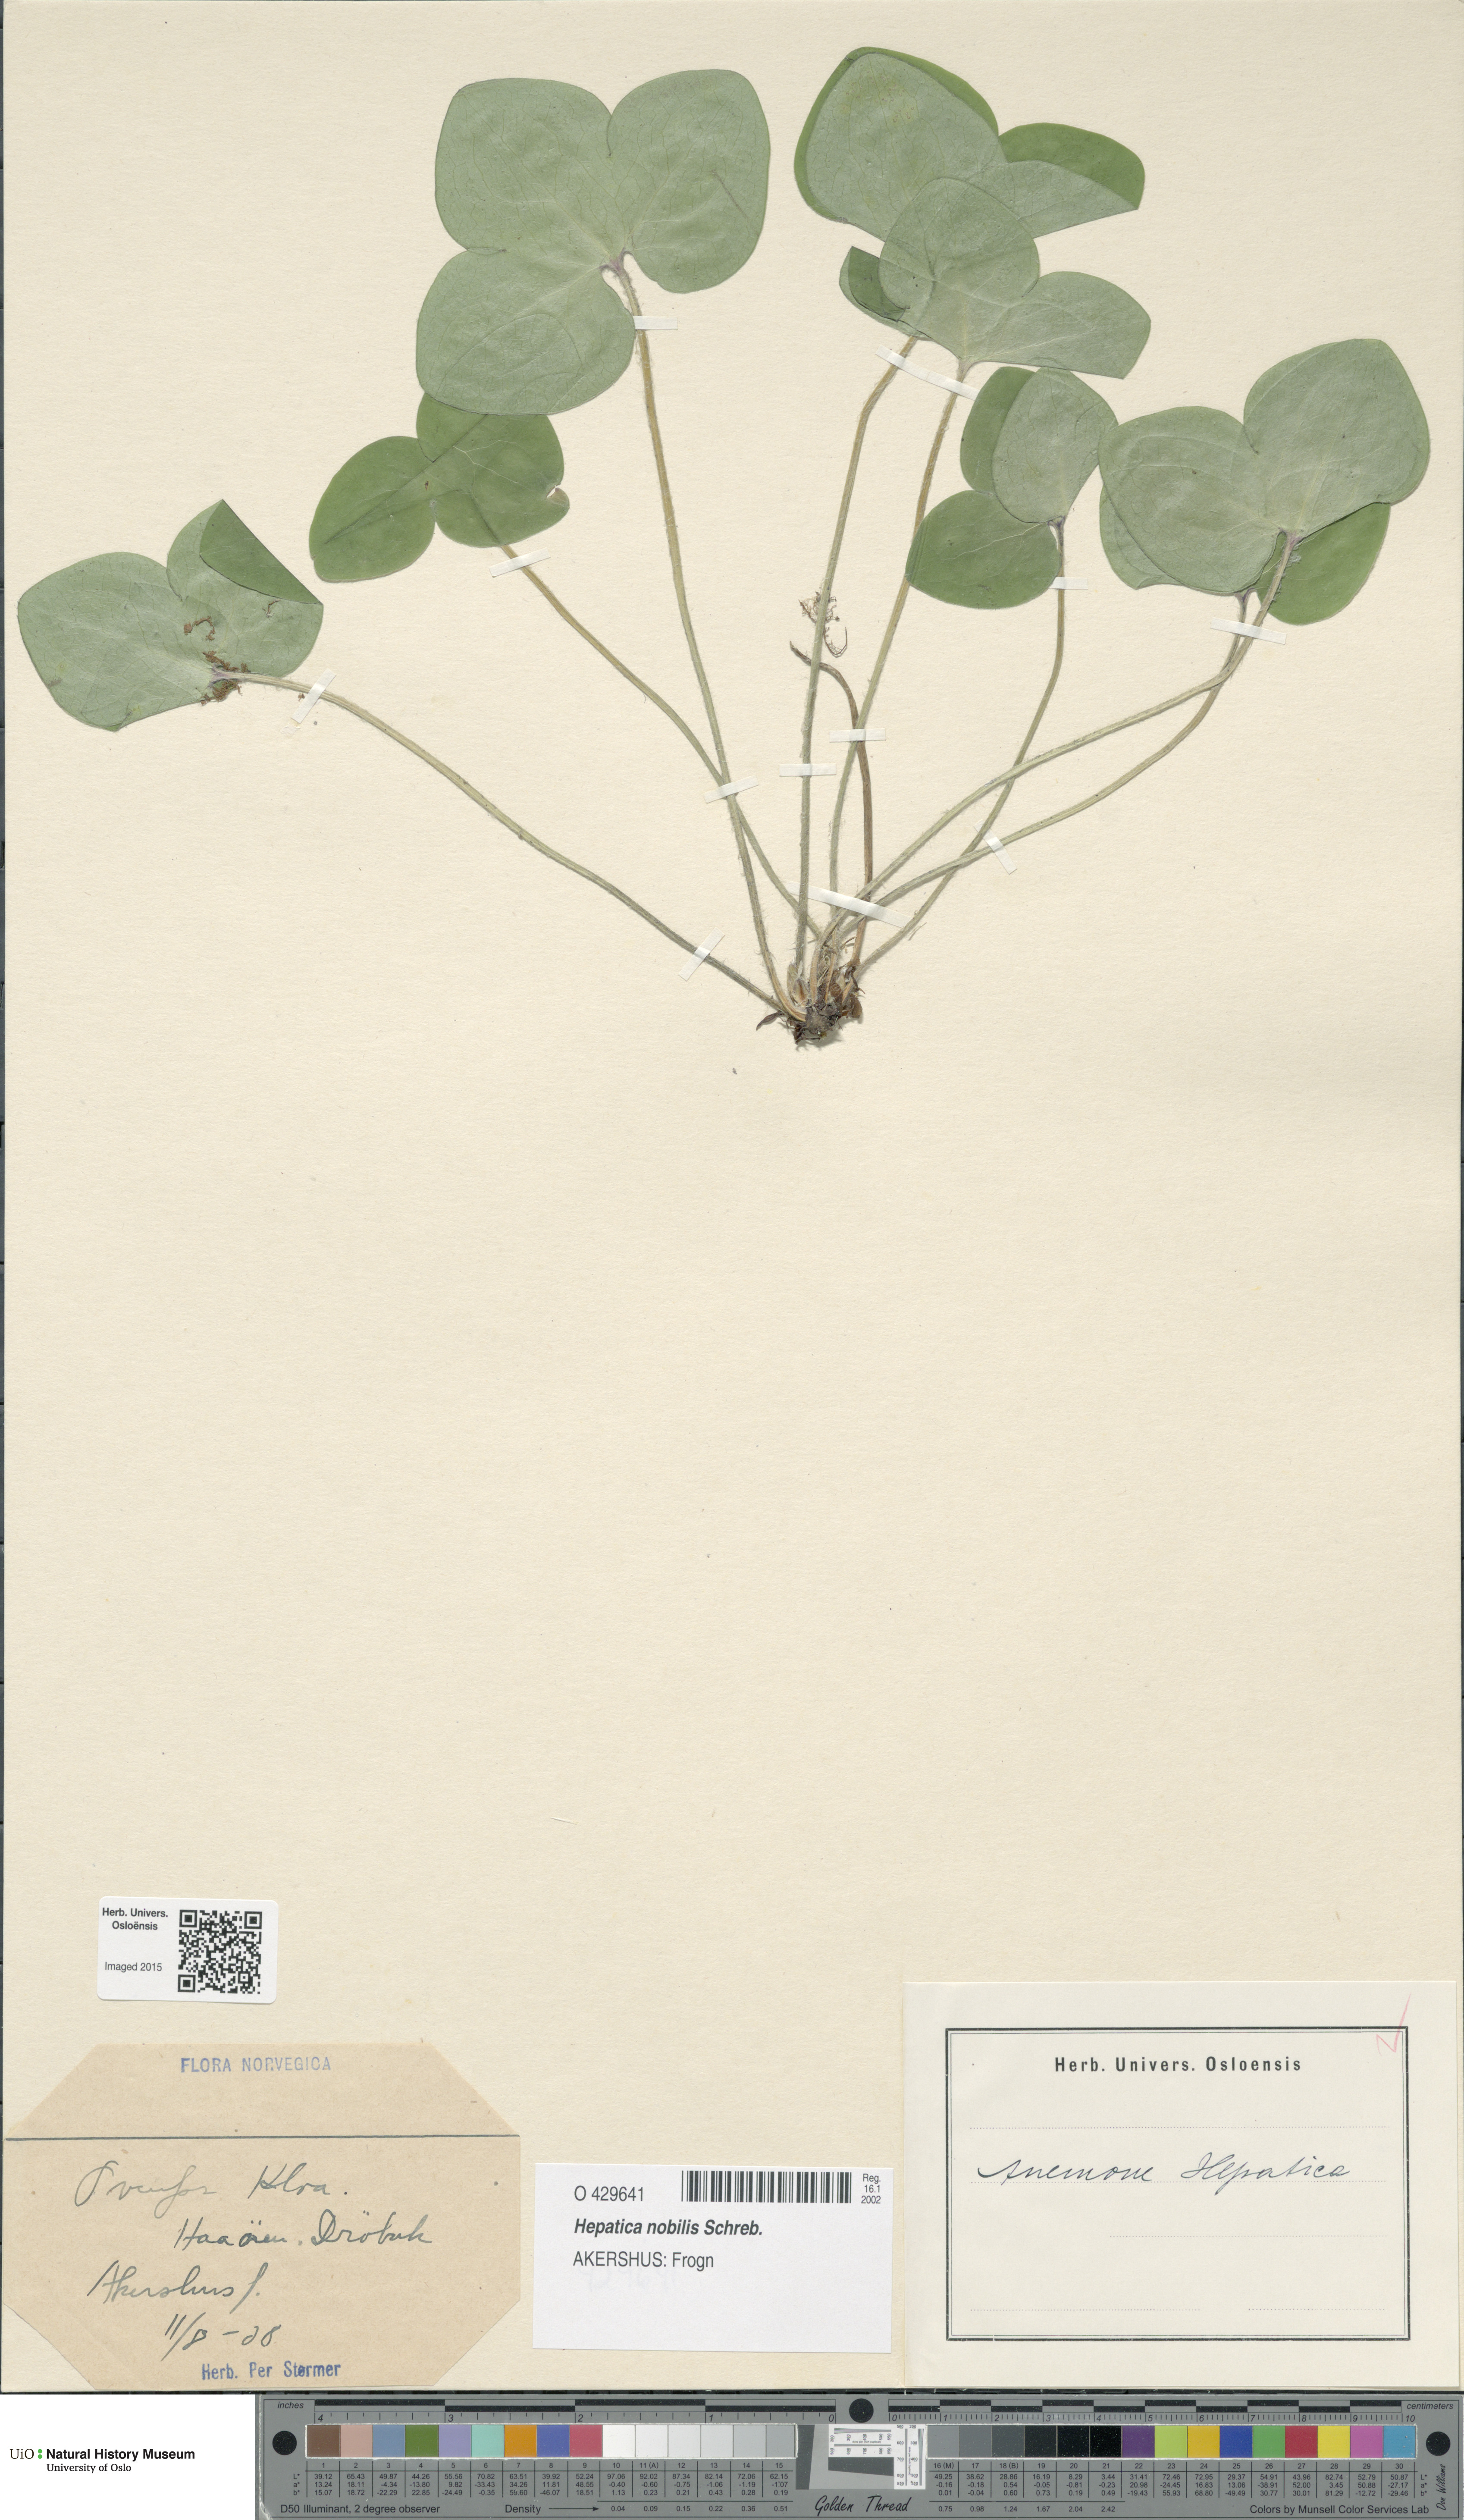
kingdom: Plantae
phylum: Tracheophyta
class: Magnoliopsida
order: Ranunculales
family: Ranunculaceae
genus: Hepatica
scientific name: Hepatica nobilis
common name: Liverleaf
